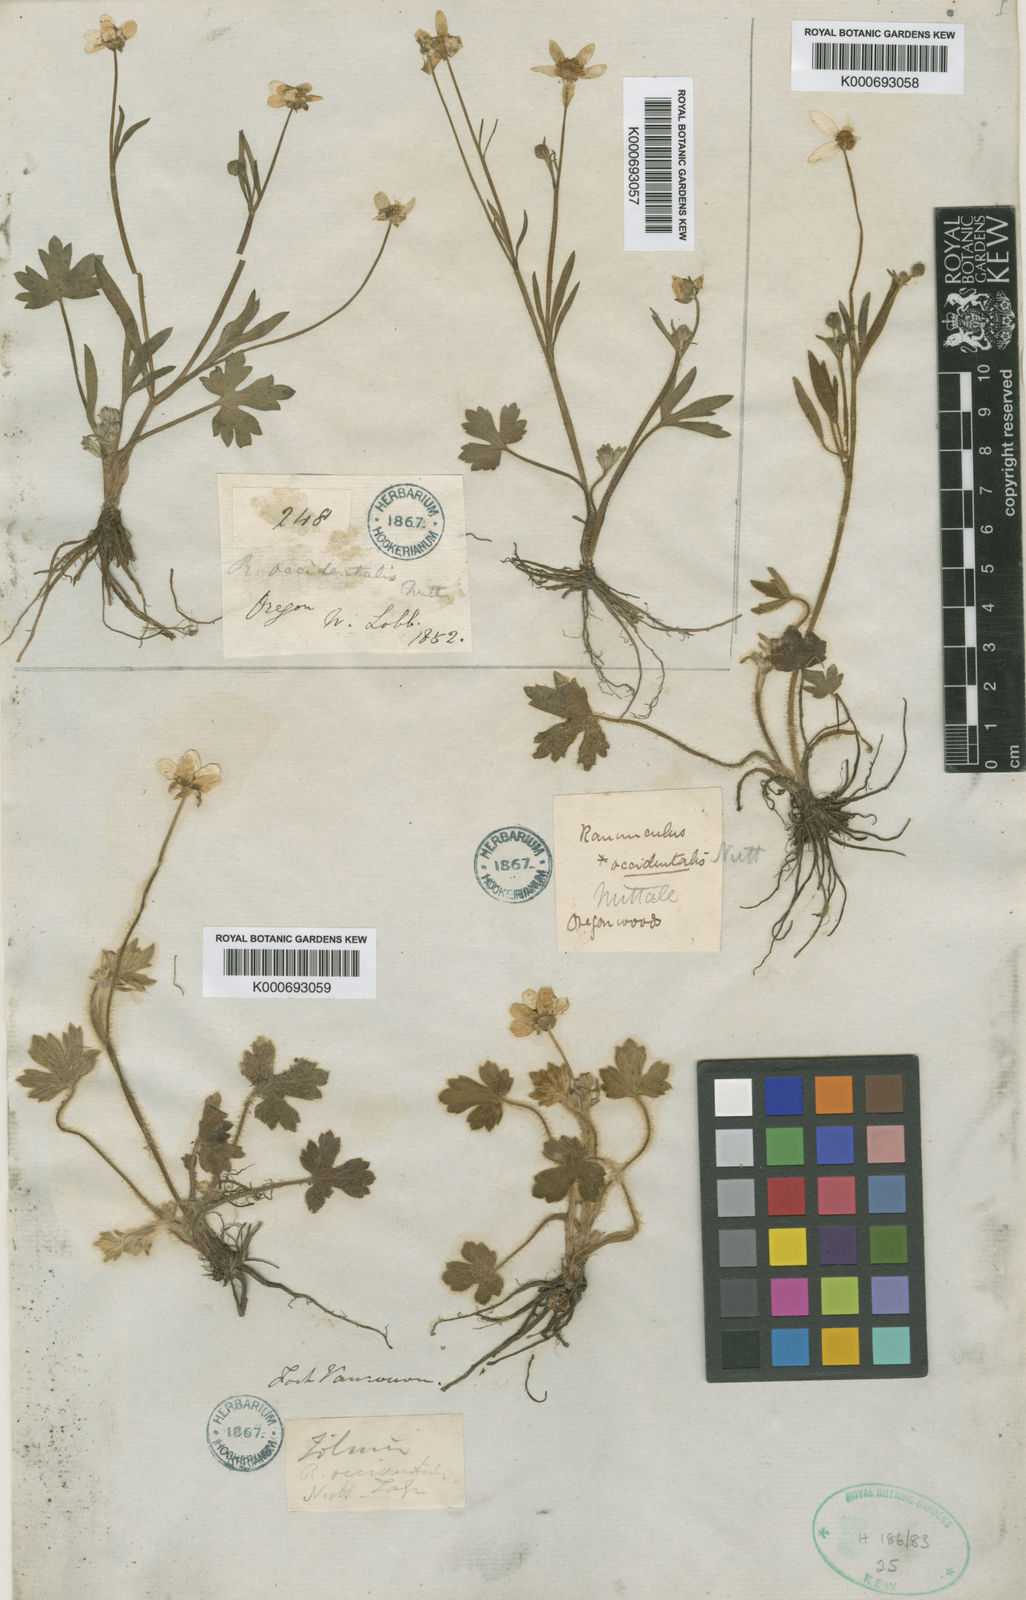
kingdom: Plantae
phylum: Tracheophyta
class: Magnoliopsida
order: Ranunculales
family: Ranunculaceae
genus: Ranunculus
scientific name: Ranunculus occidentalis
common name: Western buttercup
